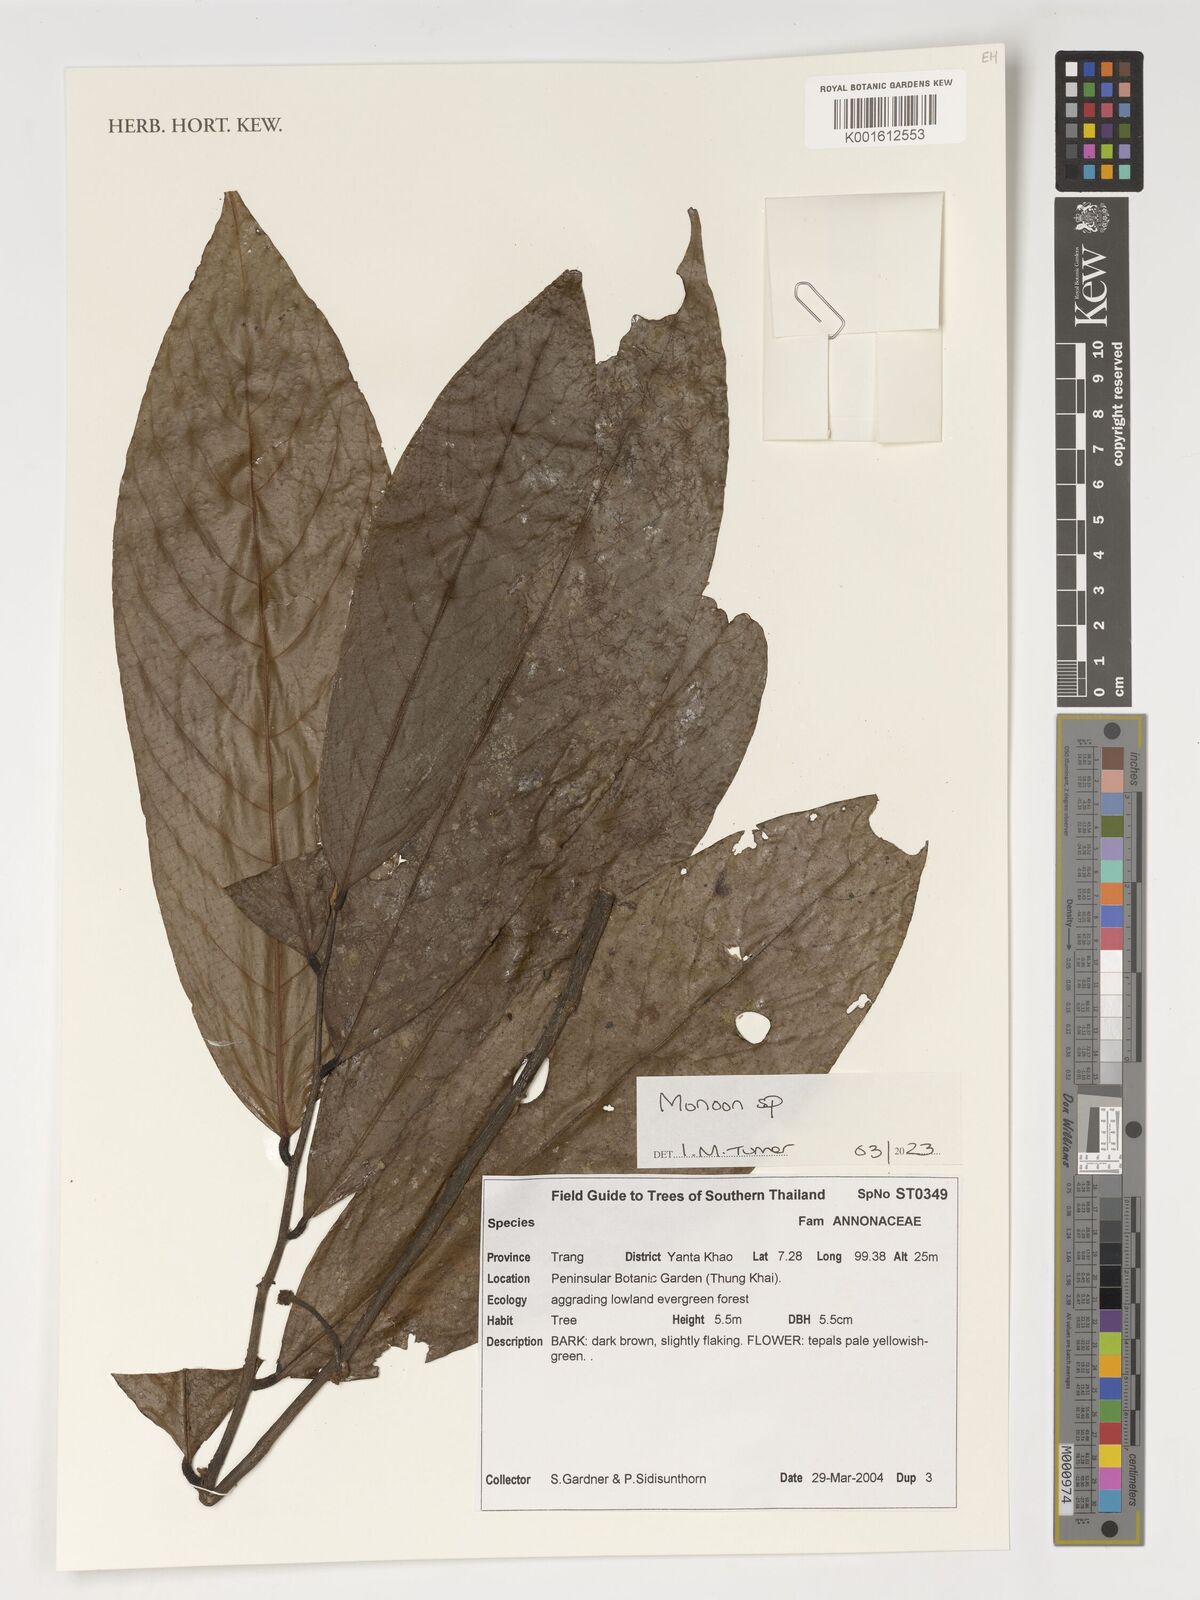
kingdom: Plantae
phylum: Tracheophyta
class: Magnoliopsida
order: Magnoliales
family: Annonaceae
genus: Monoon
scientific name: Monoon
